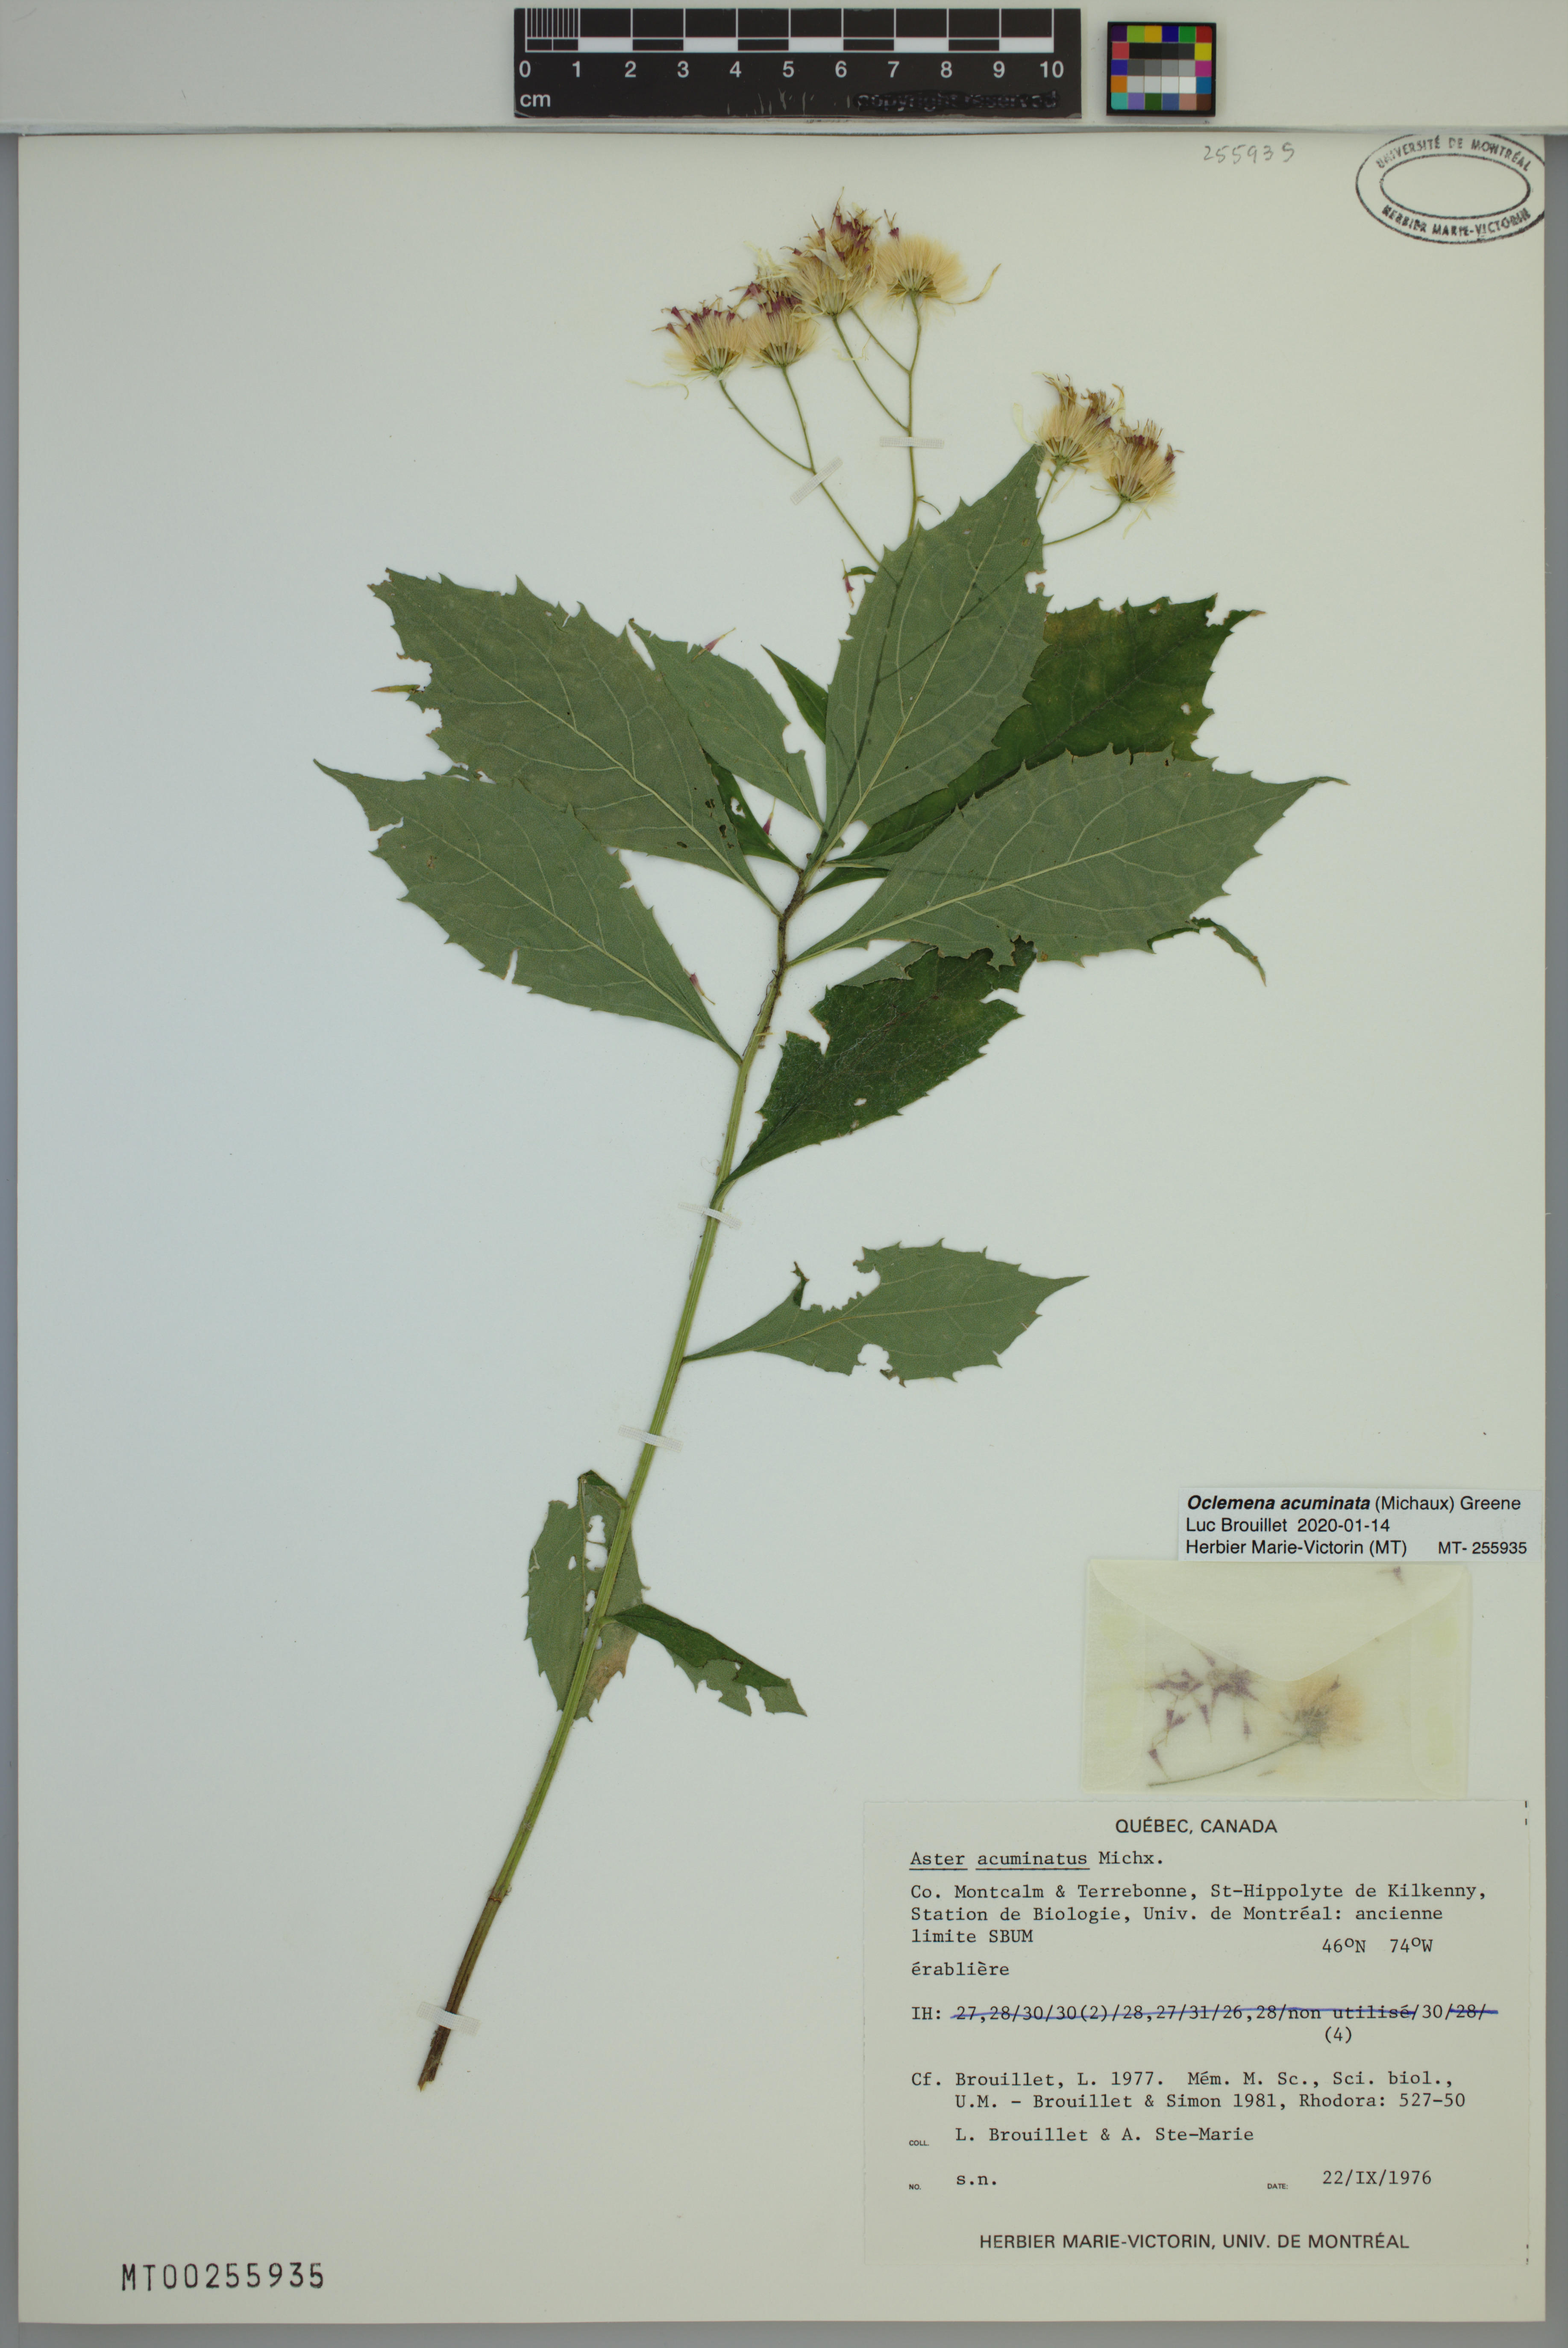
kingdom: Plantae
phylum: Tracheophyta
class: Magnoliopsida
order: Asterales
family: Asteraceae
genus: Oclemena
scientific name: Oclemena acuminata
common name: Mountain aster
